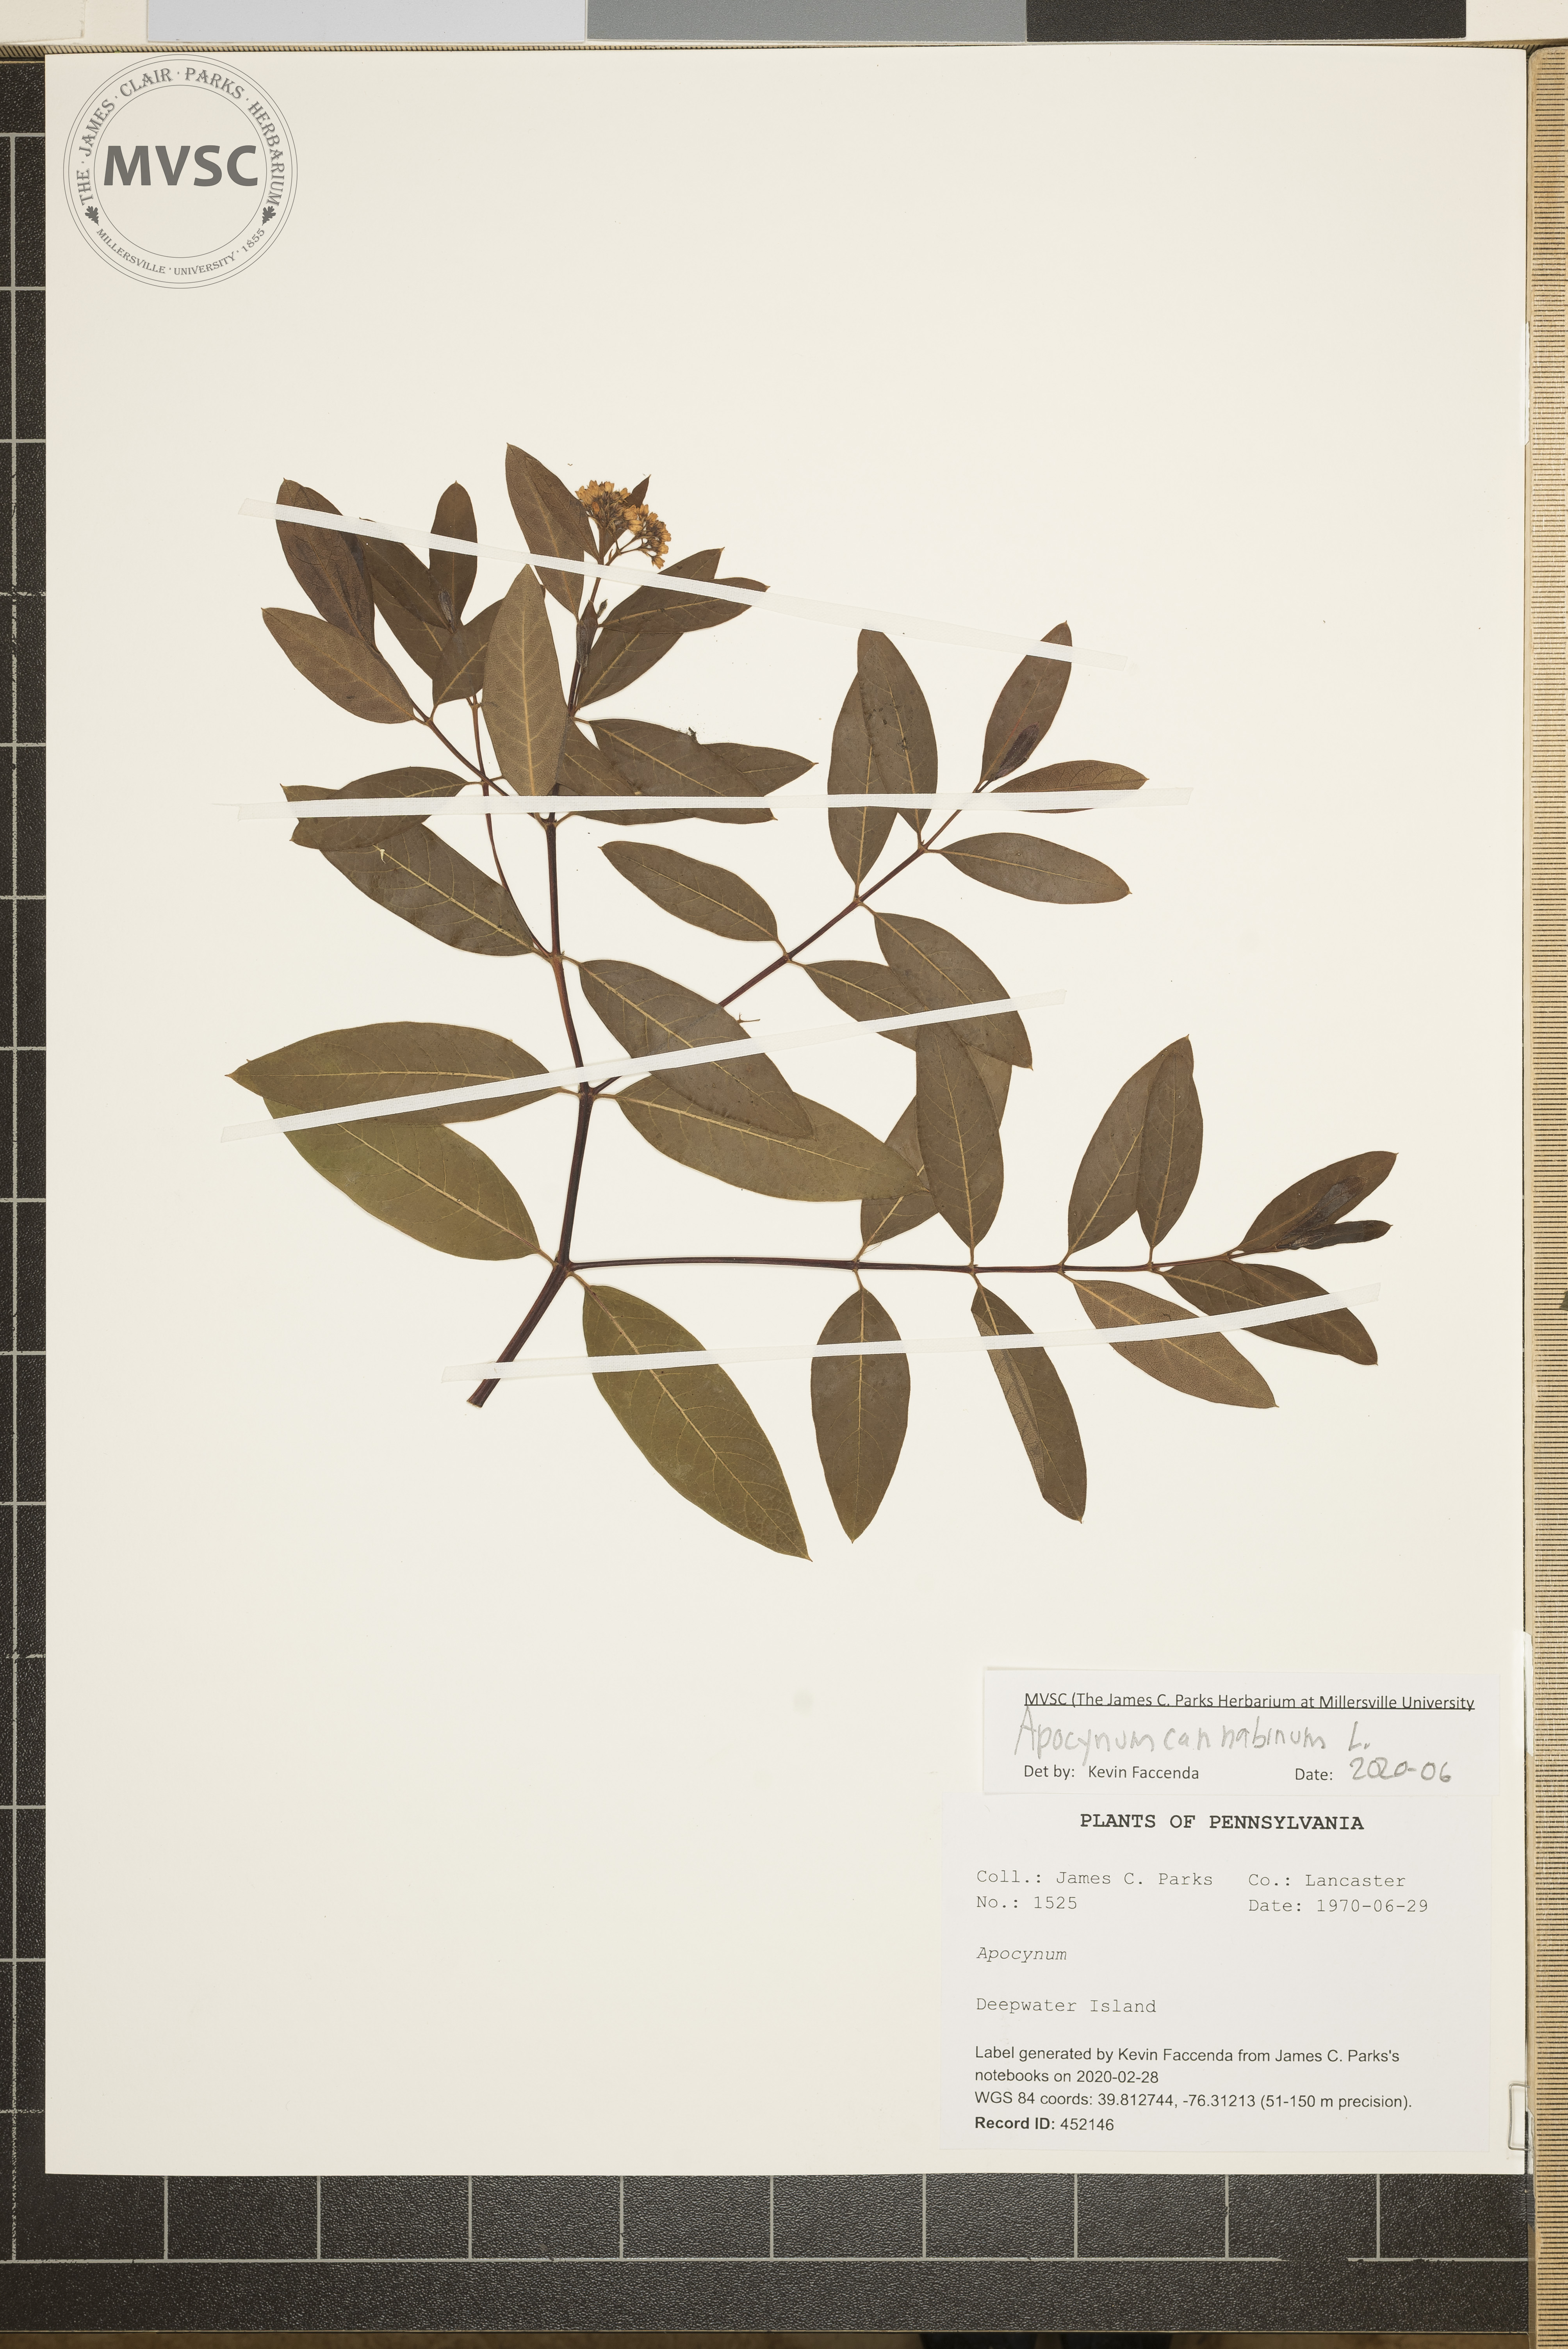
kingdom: Plantae
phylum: Tracheophyta
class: Magnoliopsida
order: Gentianales
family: Apocynaceae
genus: Apocynum
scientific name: Apocynum cannabinum
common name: Hemp dogbane
